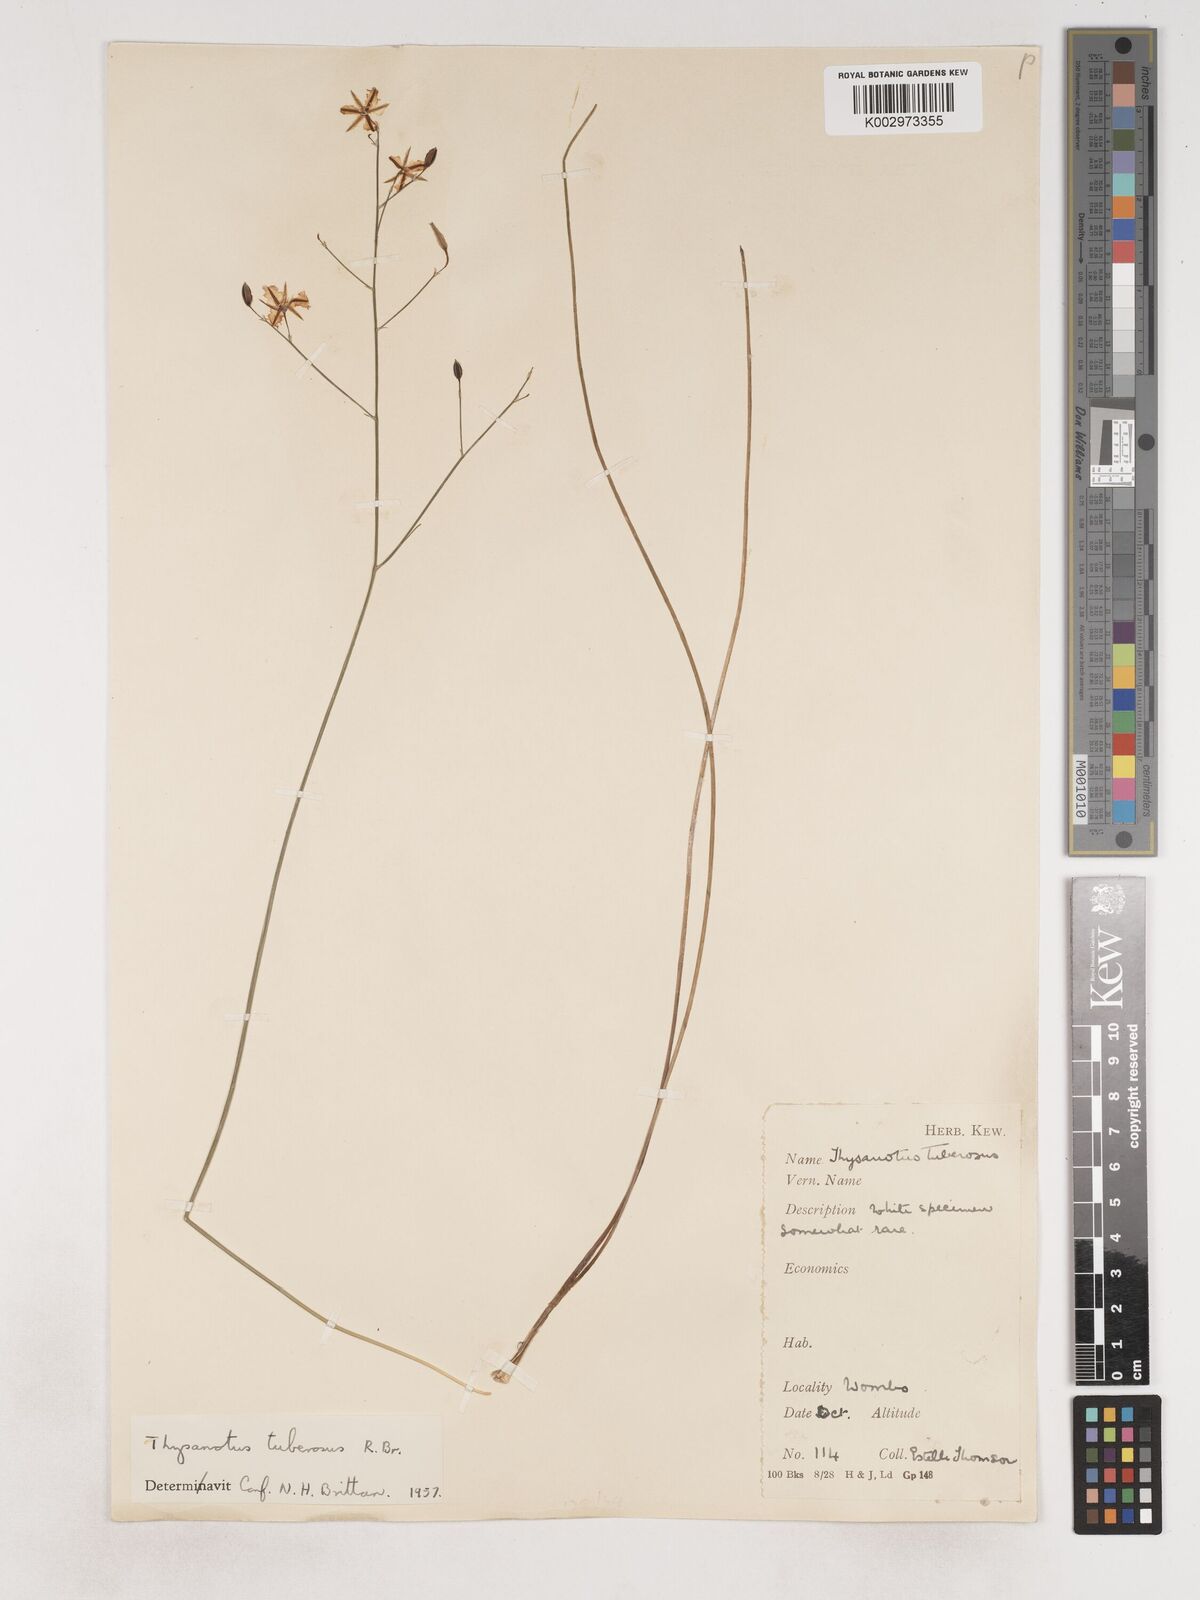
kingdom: Plantae
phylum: Tracheophyta
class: Liliopsida
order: Asparagales
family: Asparagaceae
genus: Thysanotus
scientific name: Thysanotus tuberosus
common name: Common fringed-lily
